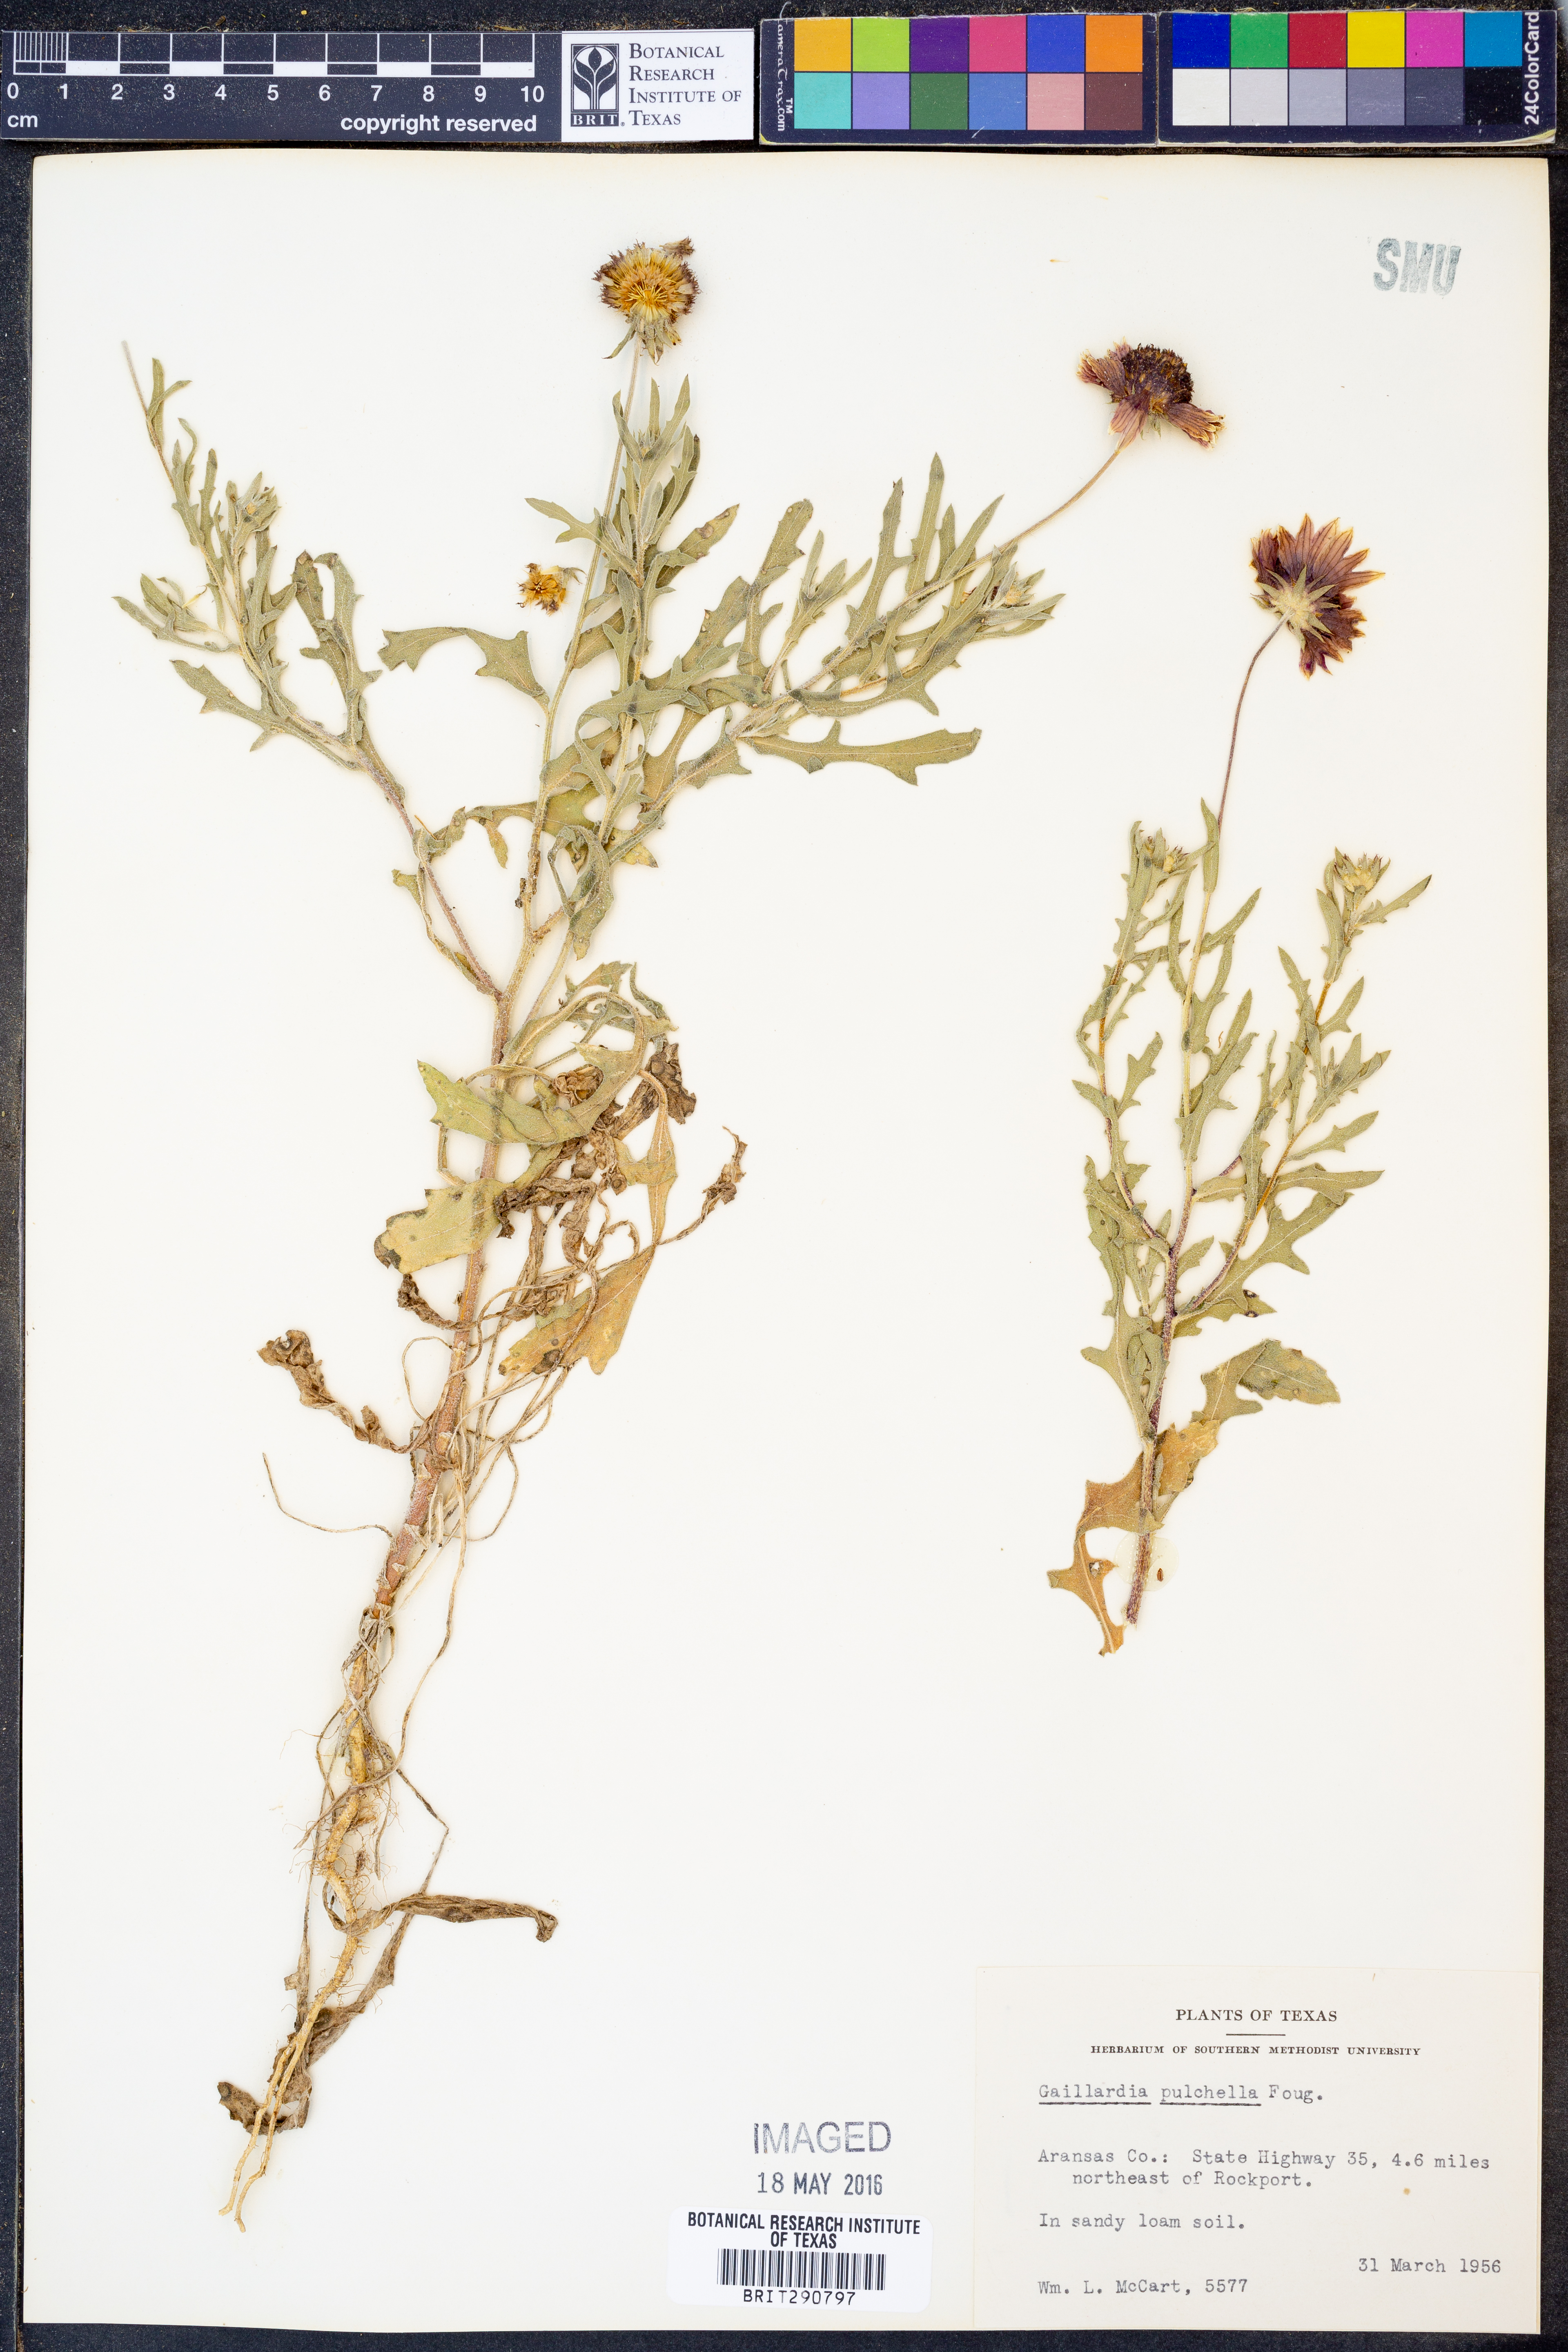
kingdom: Plantae
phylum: Tracheophyta
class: Magnoliopsida
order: Asterales
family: Asteraceae
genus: Gaillardia
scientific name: Gaillardia pulchella
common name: Firewheel
